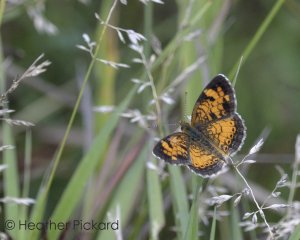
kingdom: Animalia
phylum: Arthropoda
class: Insecta
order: Lepidoptera
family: Nymphalidae
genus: Phyciodes
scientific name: Phyciodes tharos
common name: Northern Crescent
